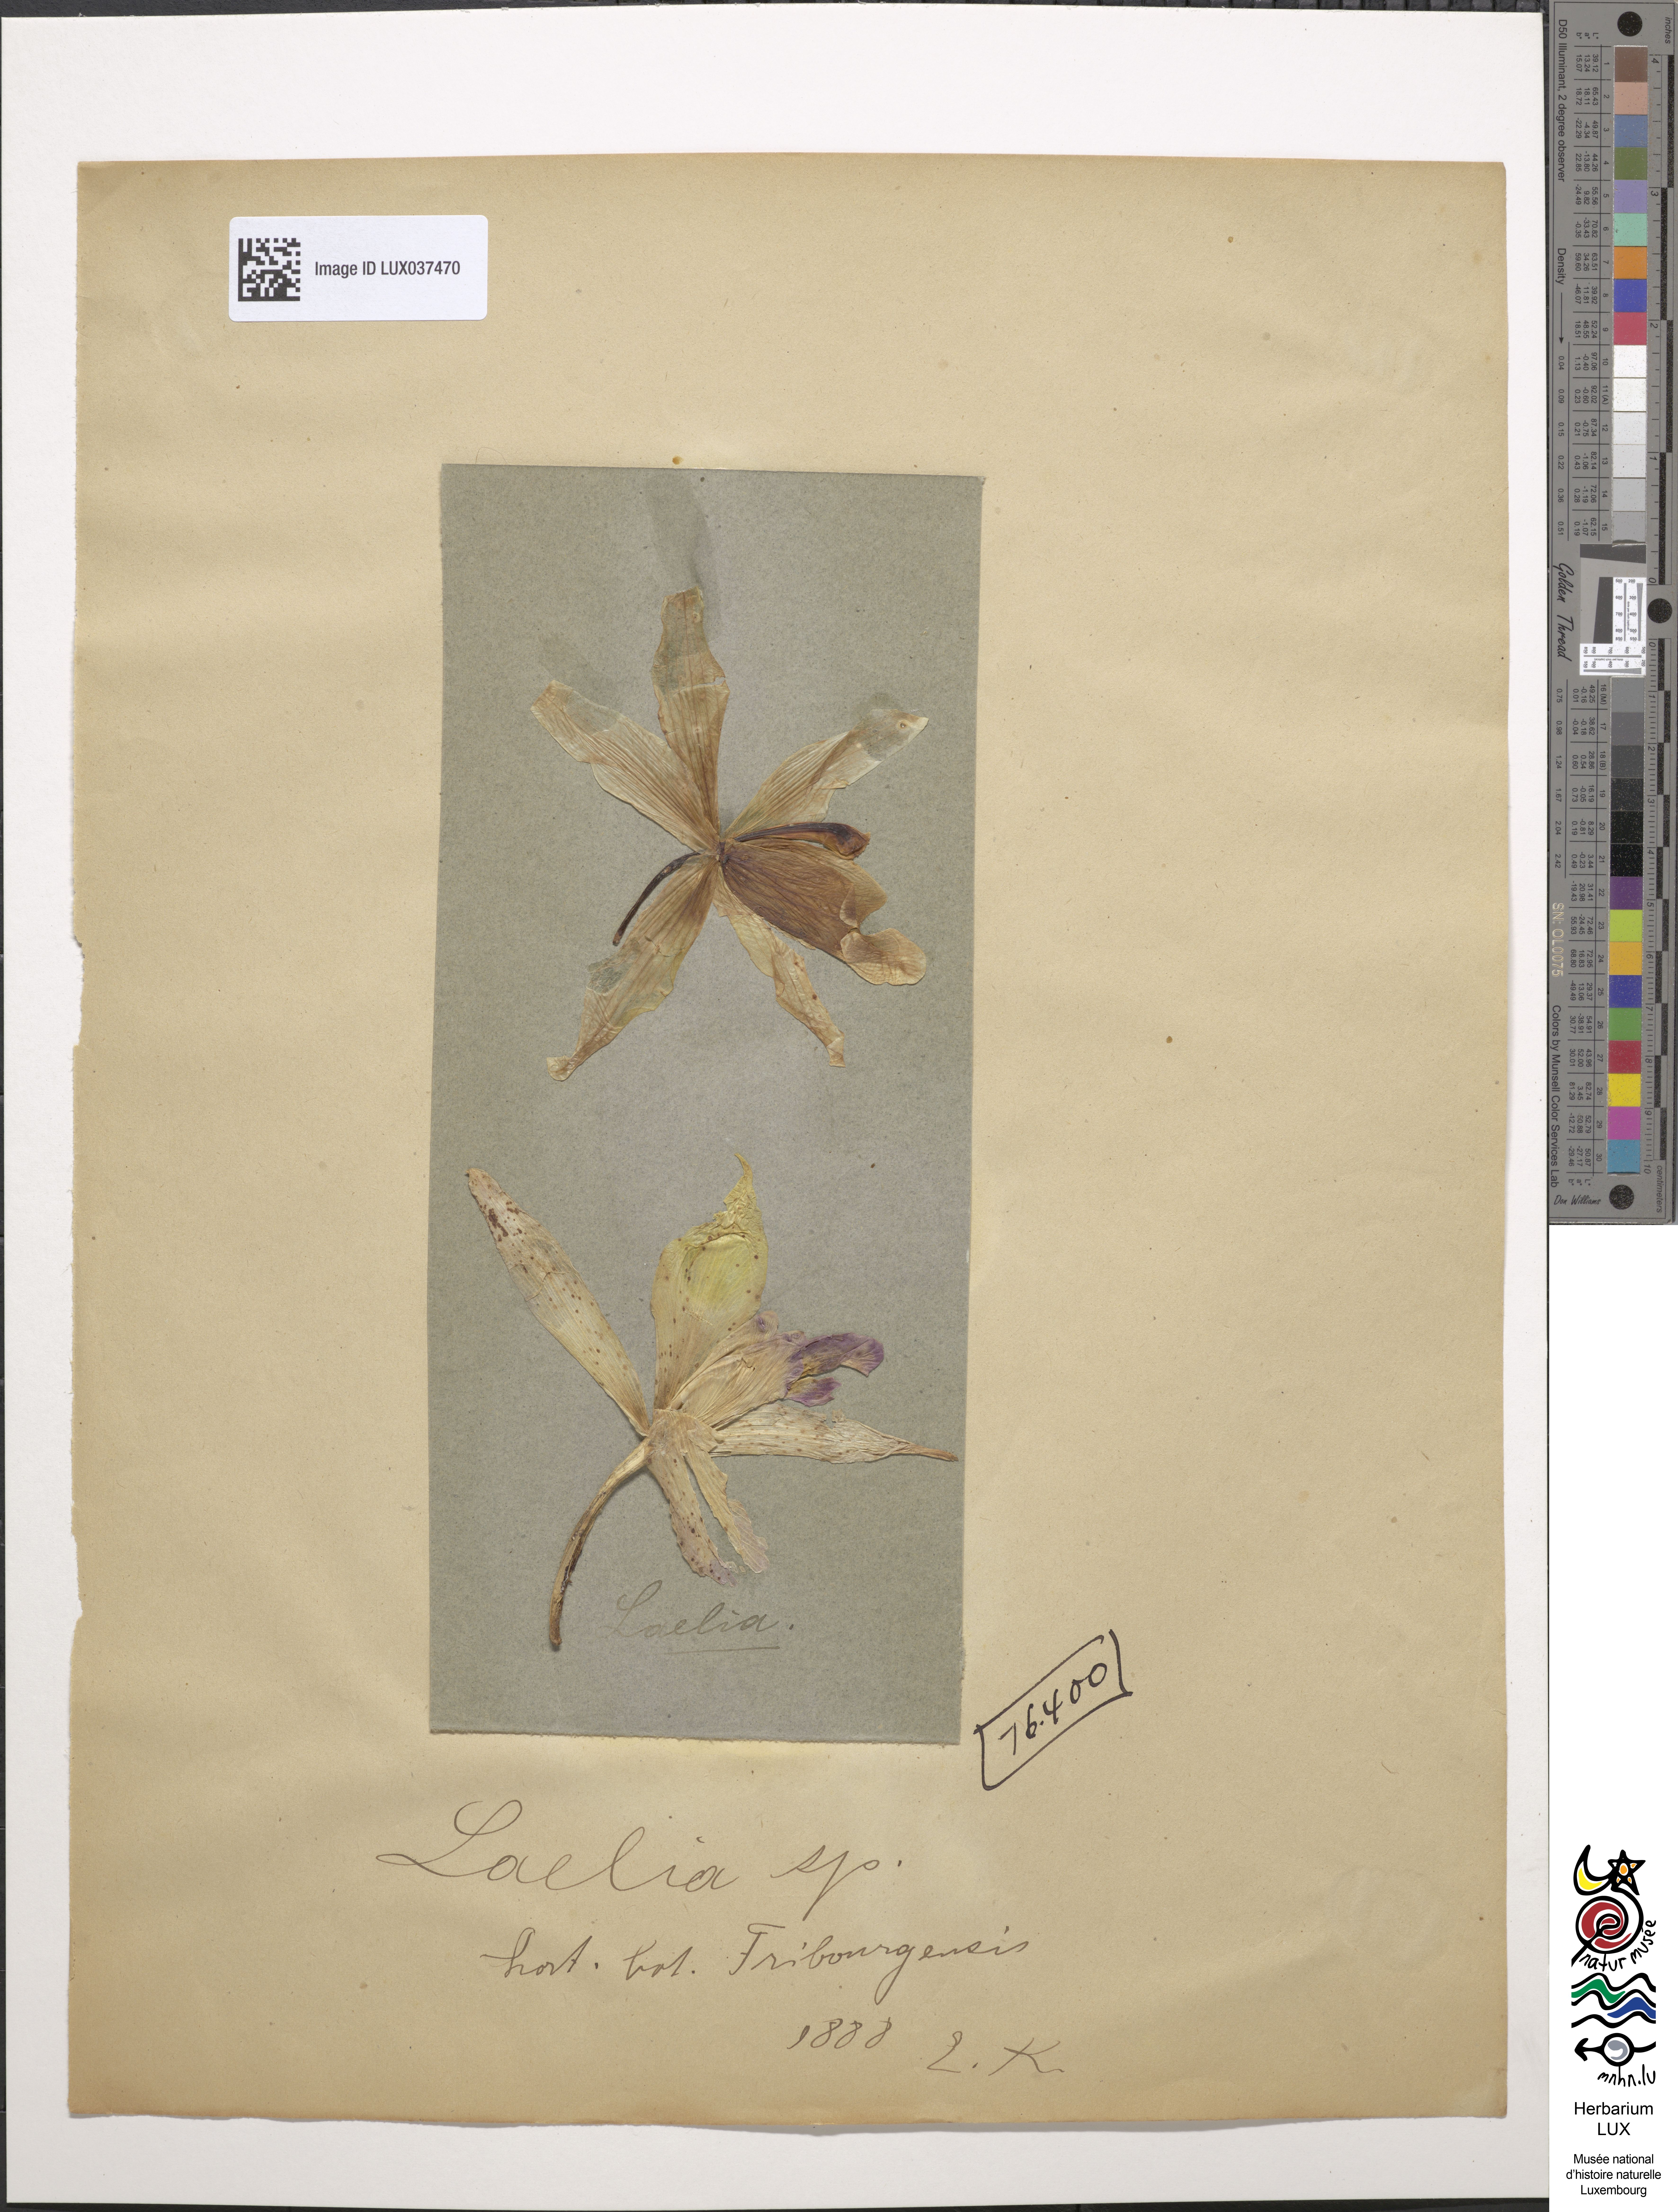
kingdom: Animalia
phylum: Arthropoda
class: Insecta
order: Lepidoptera
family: Erebidae
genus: Laelia
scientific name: Laelia
